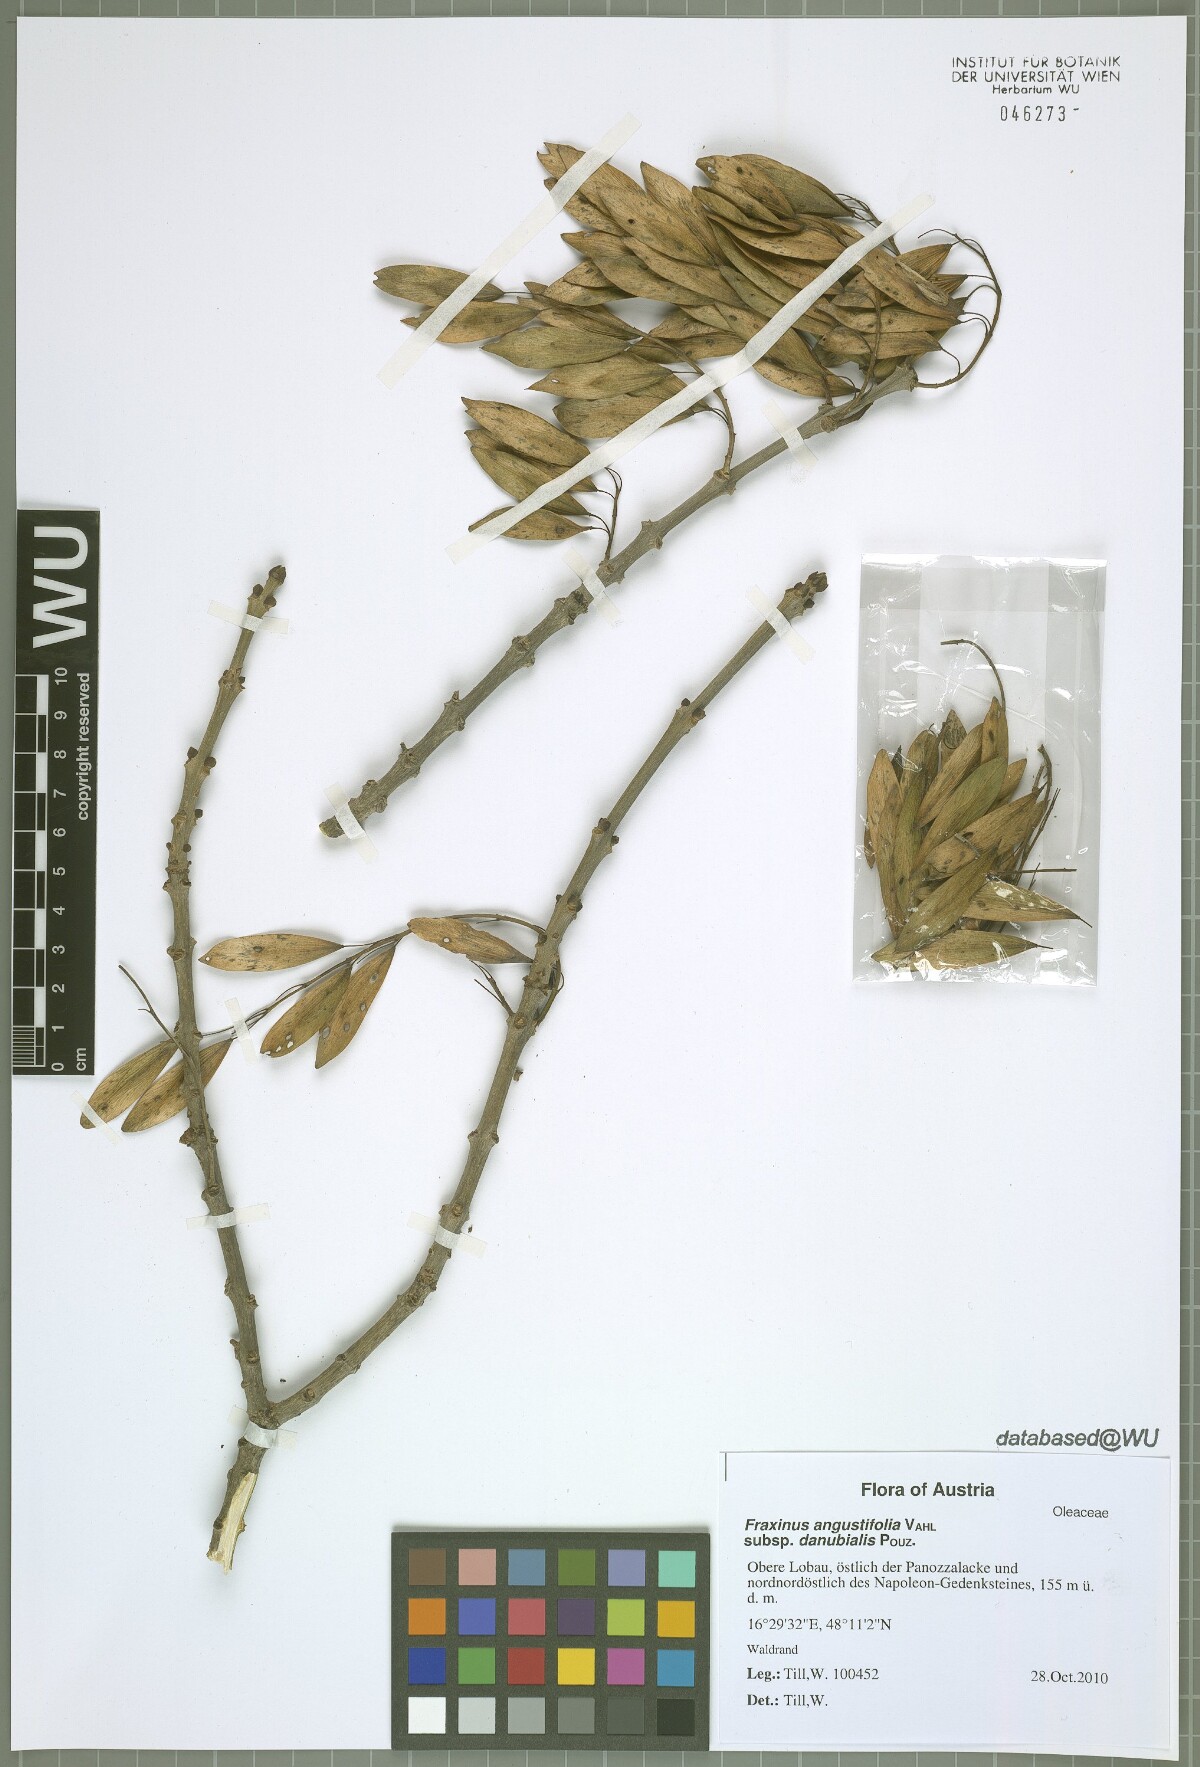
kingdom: Plantae
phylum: Tracheophyta
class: Magnoliopsida
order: Lamiales
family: Oleaceae
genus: Fraxinus
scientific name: Fraxinus angustifolia
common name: Narrow-leafed ash
